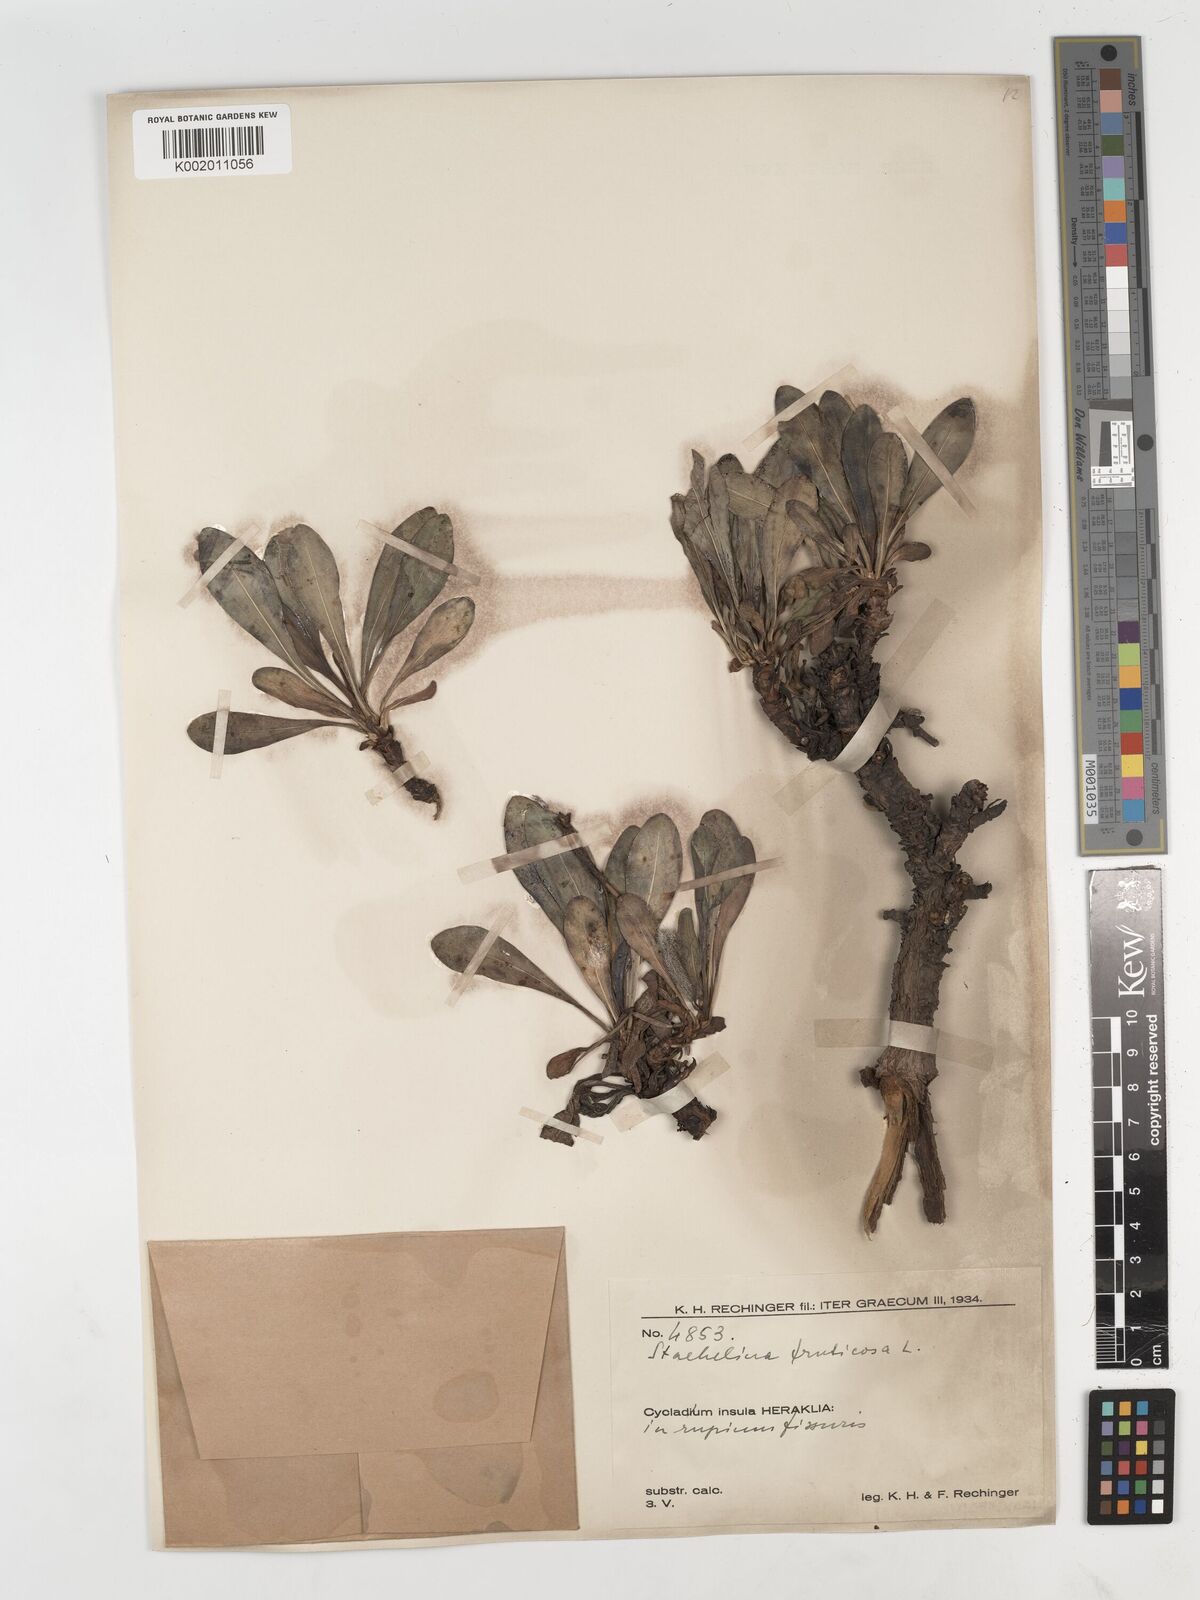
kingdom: Plantae
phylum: Tracheophyta
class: Magnoliopsida
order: Asterales
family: Asteraceae
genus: Hirtellina
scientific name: Hirtellina fruticosa
